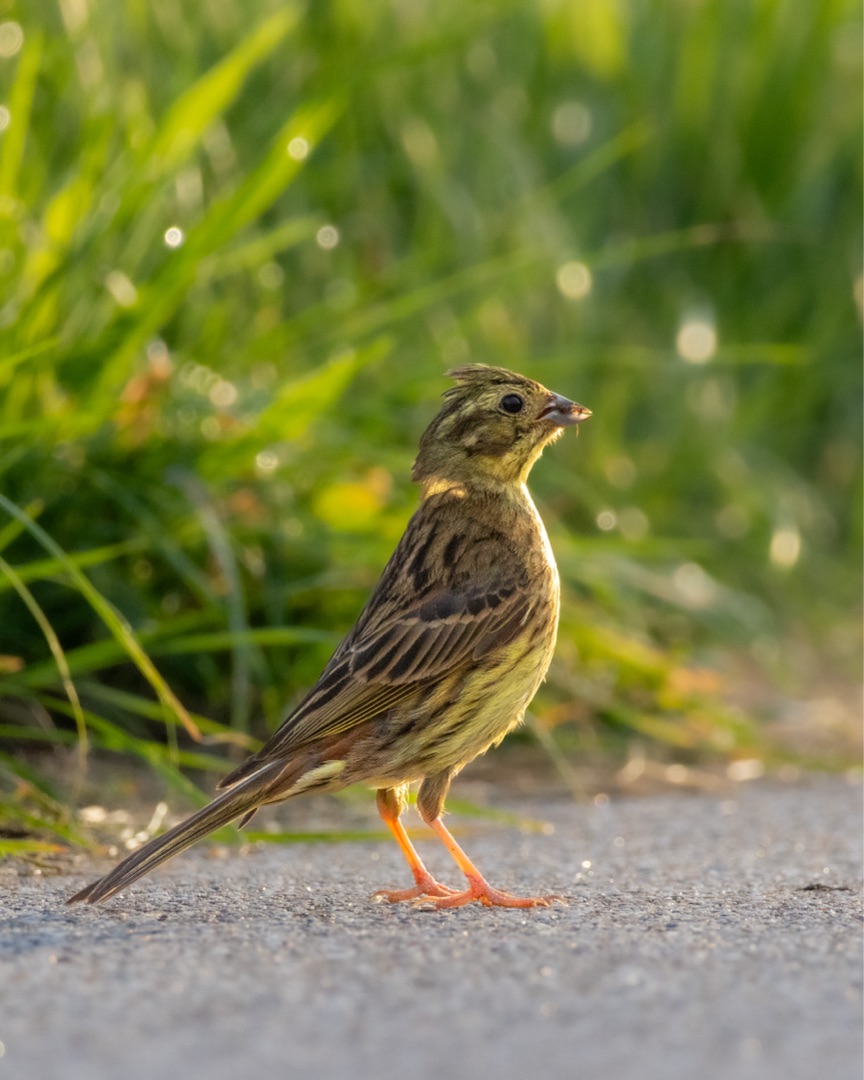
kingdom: Animalia
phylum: Chordata
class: Aves
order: Passeriformes
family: Emberizidae
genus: Emberiza
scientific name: Emberiza citrinella
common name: Gulspurv
